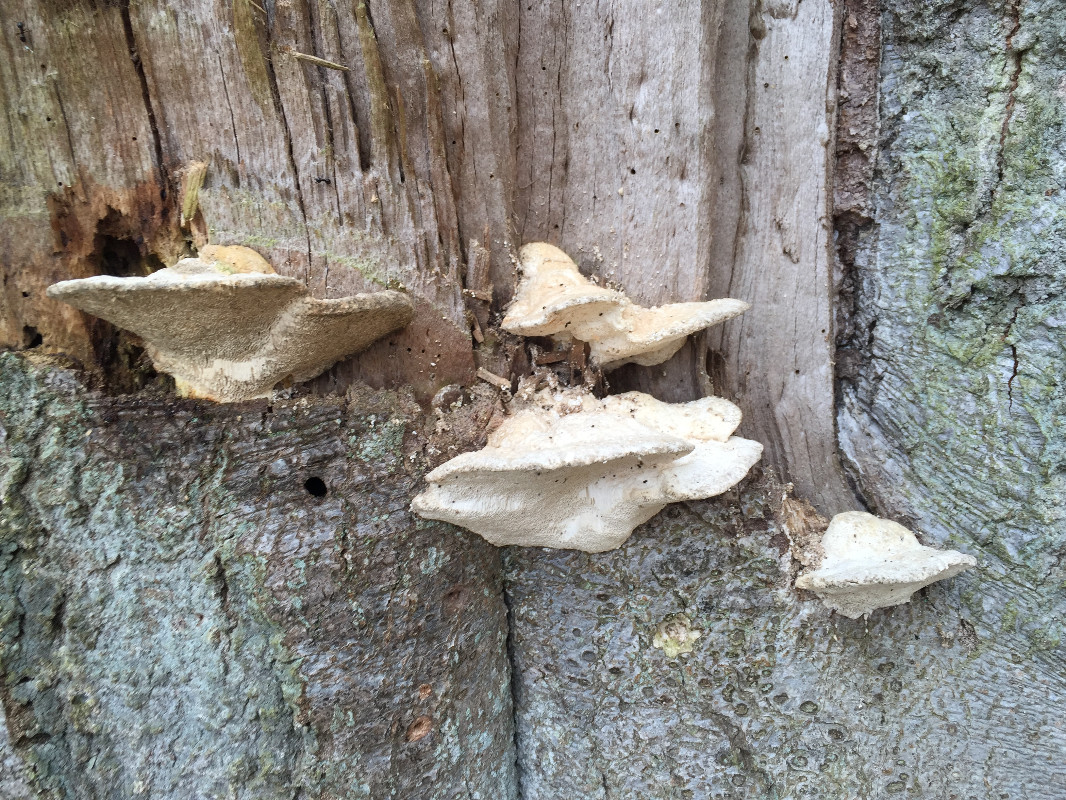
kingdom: Fungi
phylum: Basidiomycota
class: Agaricomycetes
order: Polyporales
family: Polyporaceae
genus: Trametes
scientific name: Trametes gibbosa
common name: puklet læderporesvamp
